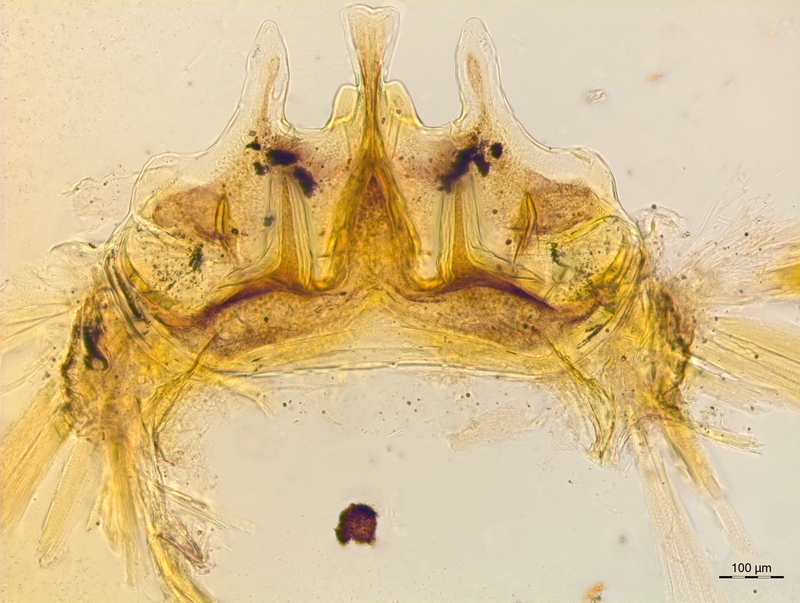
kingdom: Animalia
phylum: Arthropoda
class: Diplopoda
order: Chordeumatida
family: Craspedosomatidae
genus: Craspedosoma
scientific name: Craspedosoma rawlinsii
